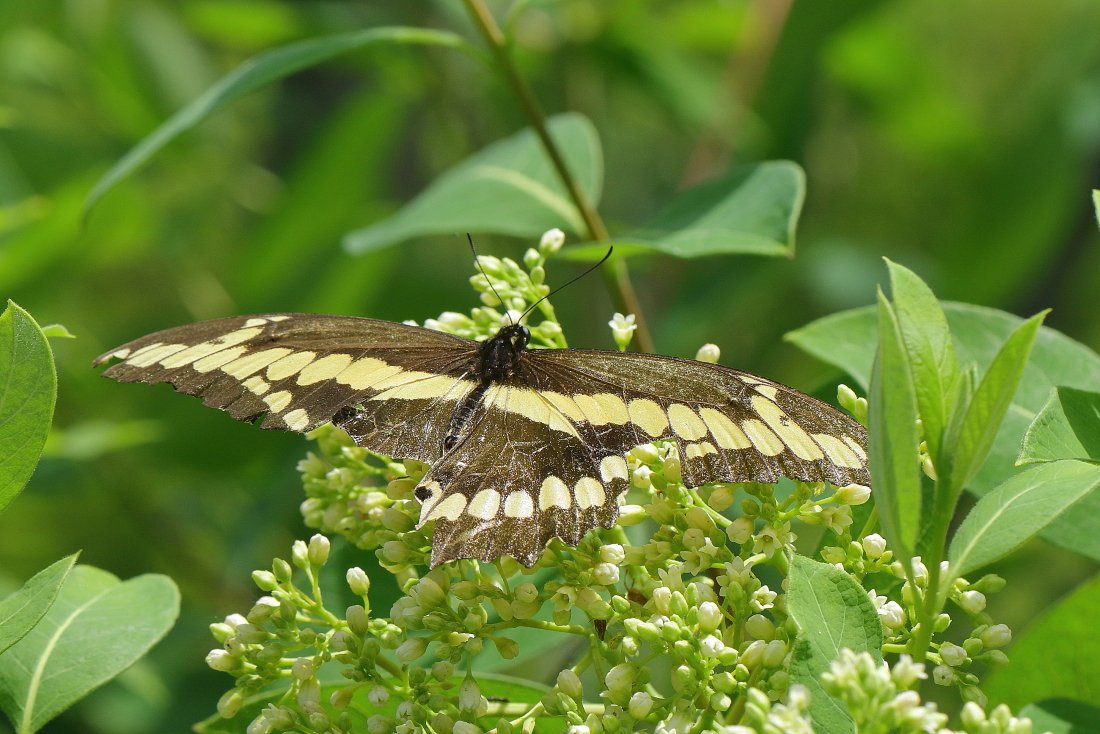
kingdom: Animalia
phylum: Arthropoda
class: Insecta
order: Lepidoptera
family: Papilionidae
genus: Papilio
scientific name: Papilio cresphontes
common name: Eastern Giant Swallowtail
